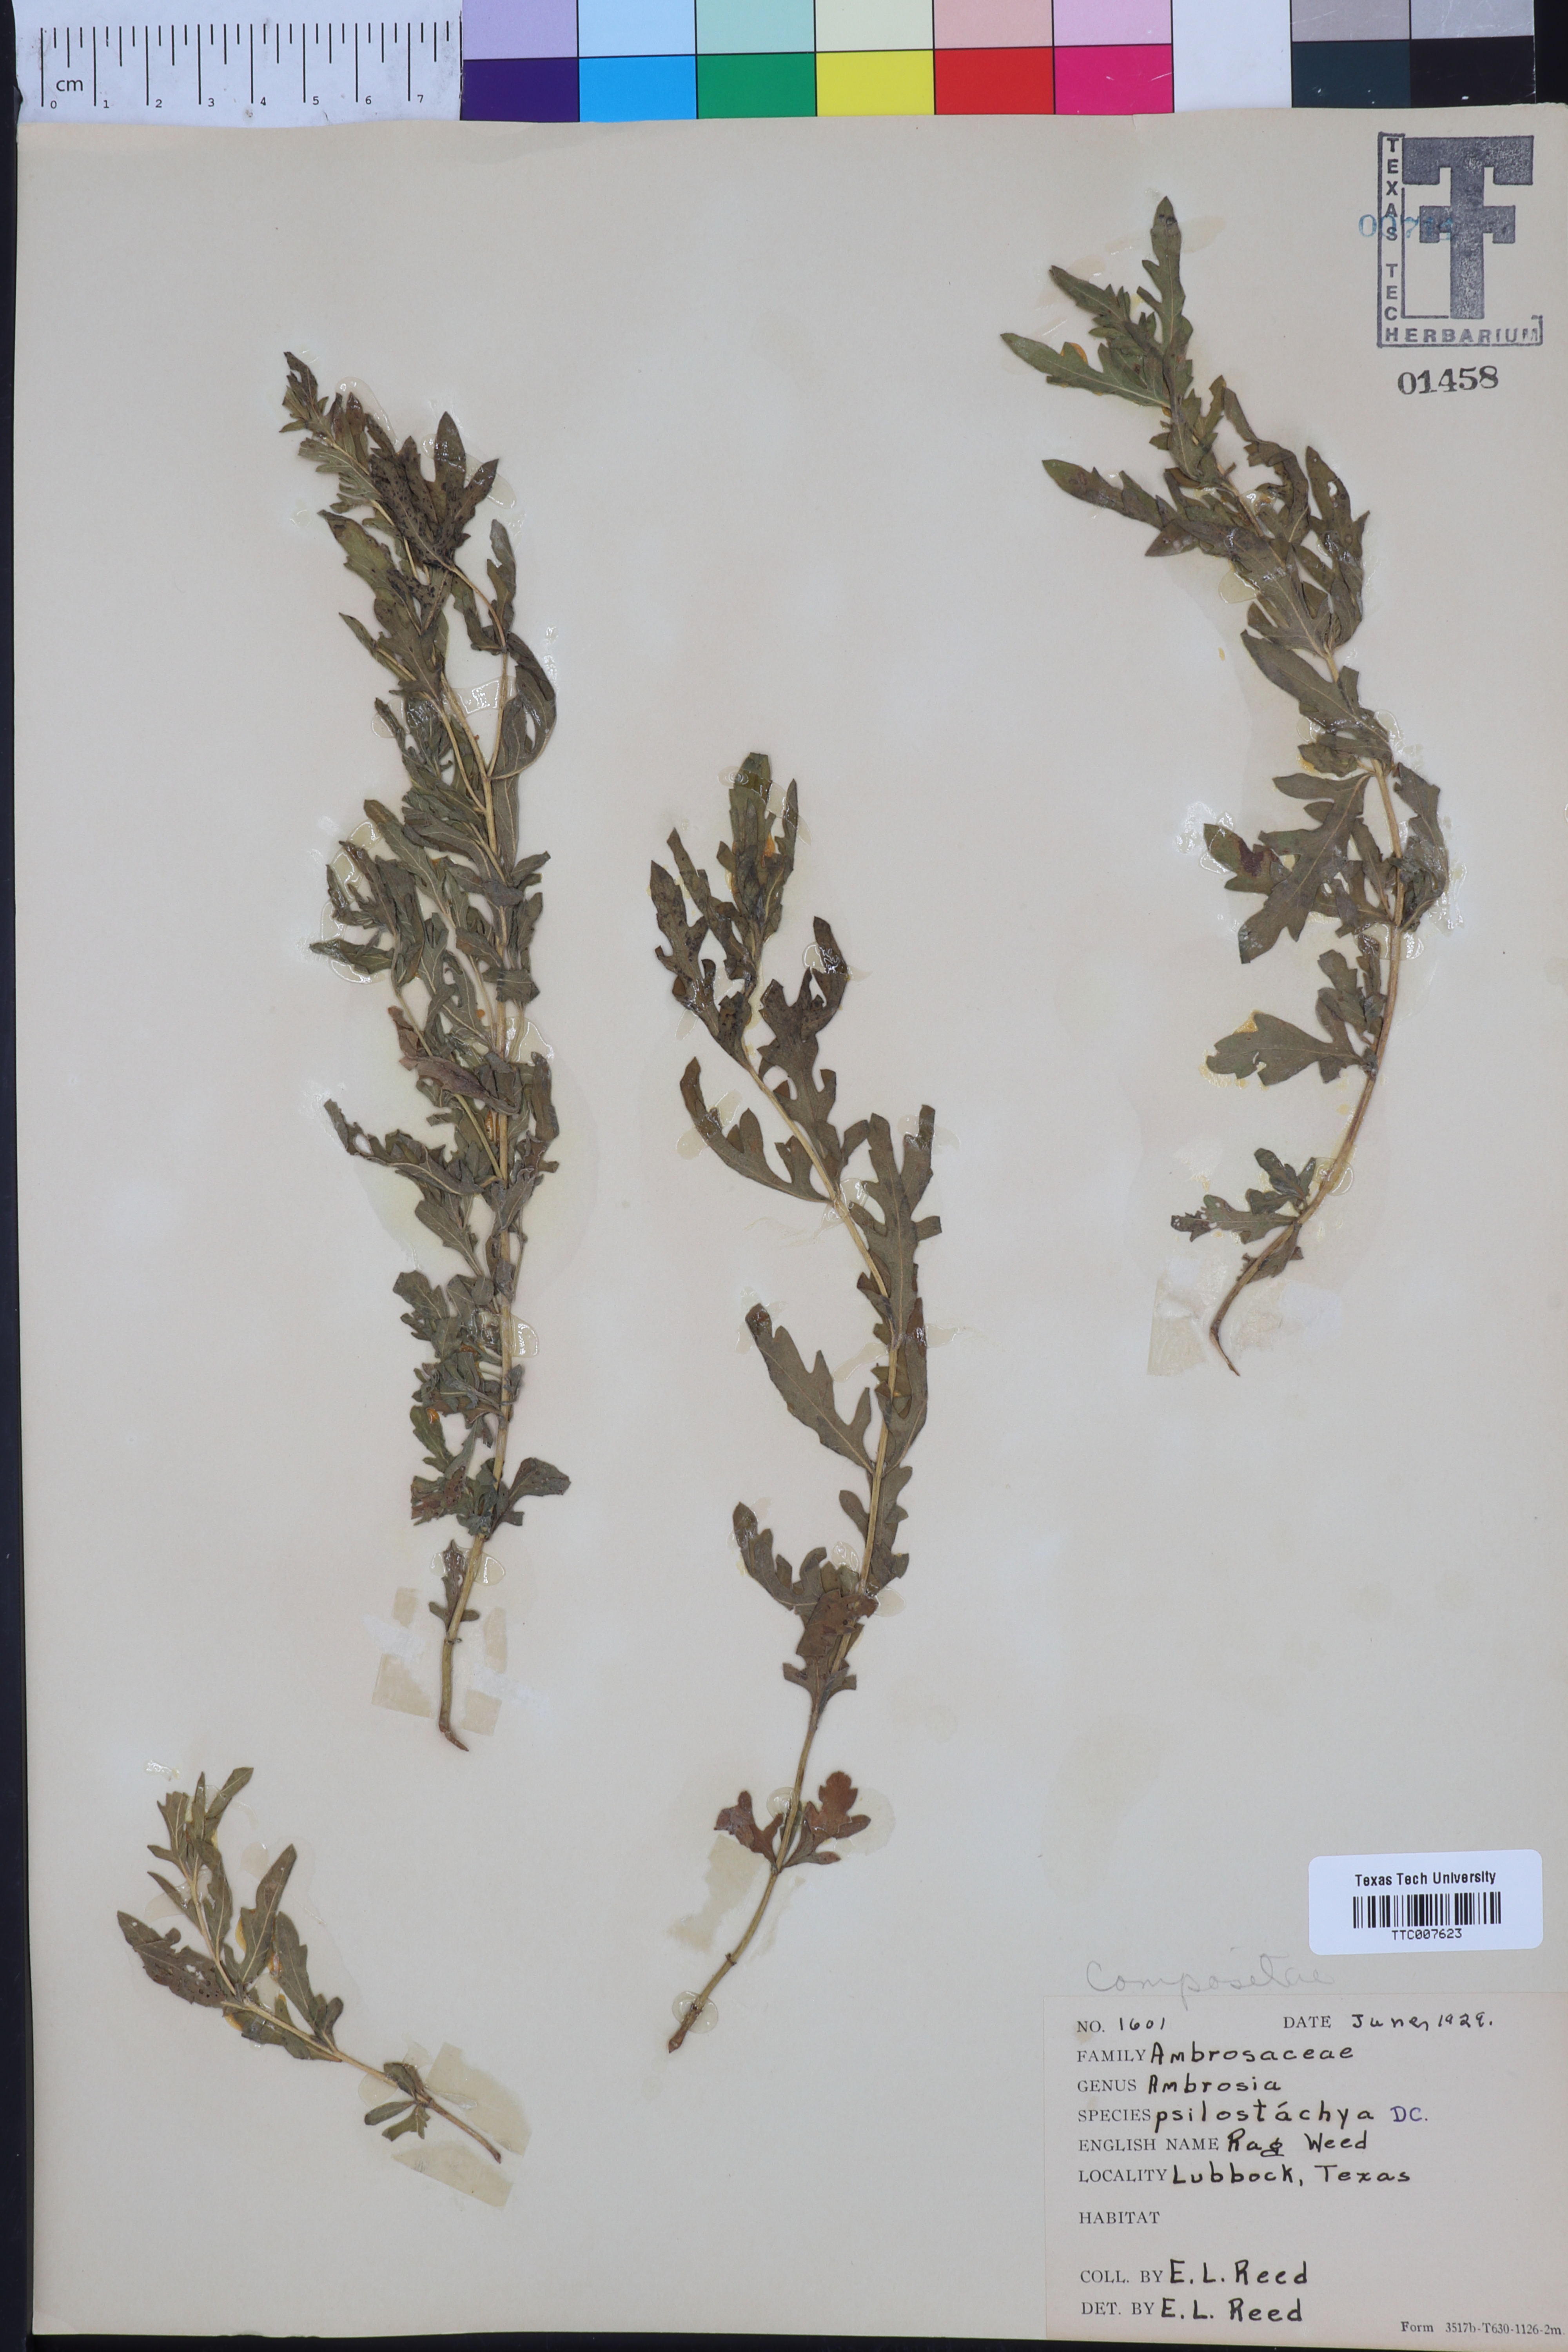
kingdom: Plantae
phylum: Tracheophyta
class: Magnoliopsida
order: Asterales
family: Asteraceae
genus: Ambrosia
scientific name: Ambrosia psilostachya
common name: Perennial ragweed
